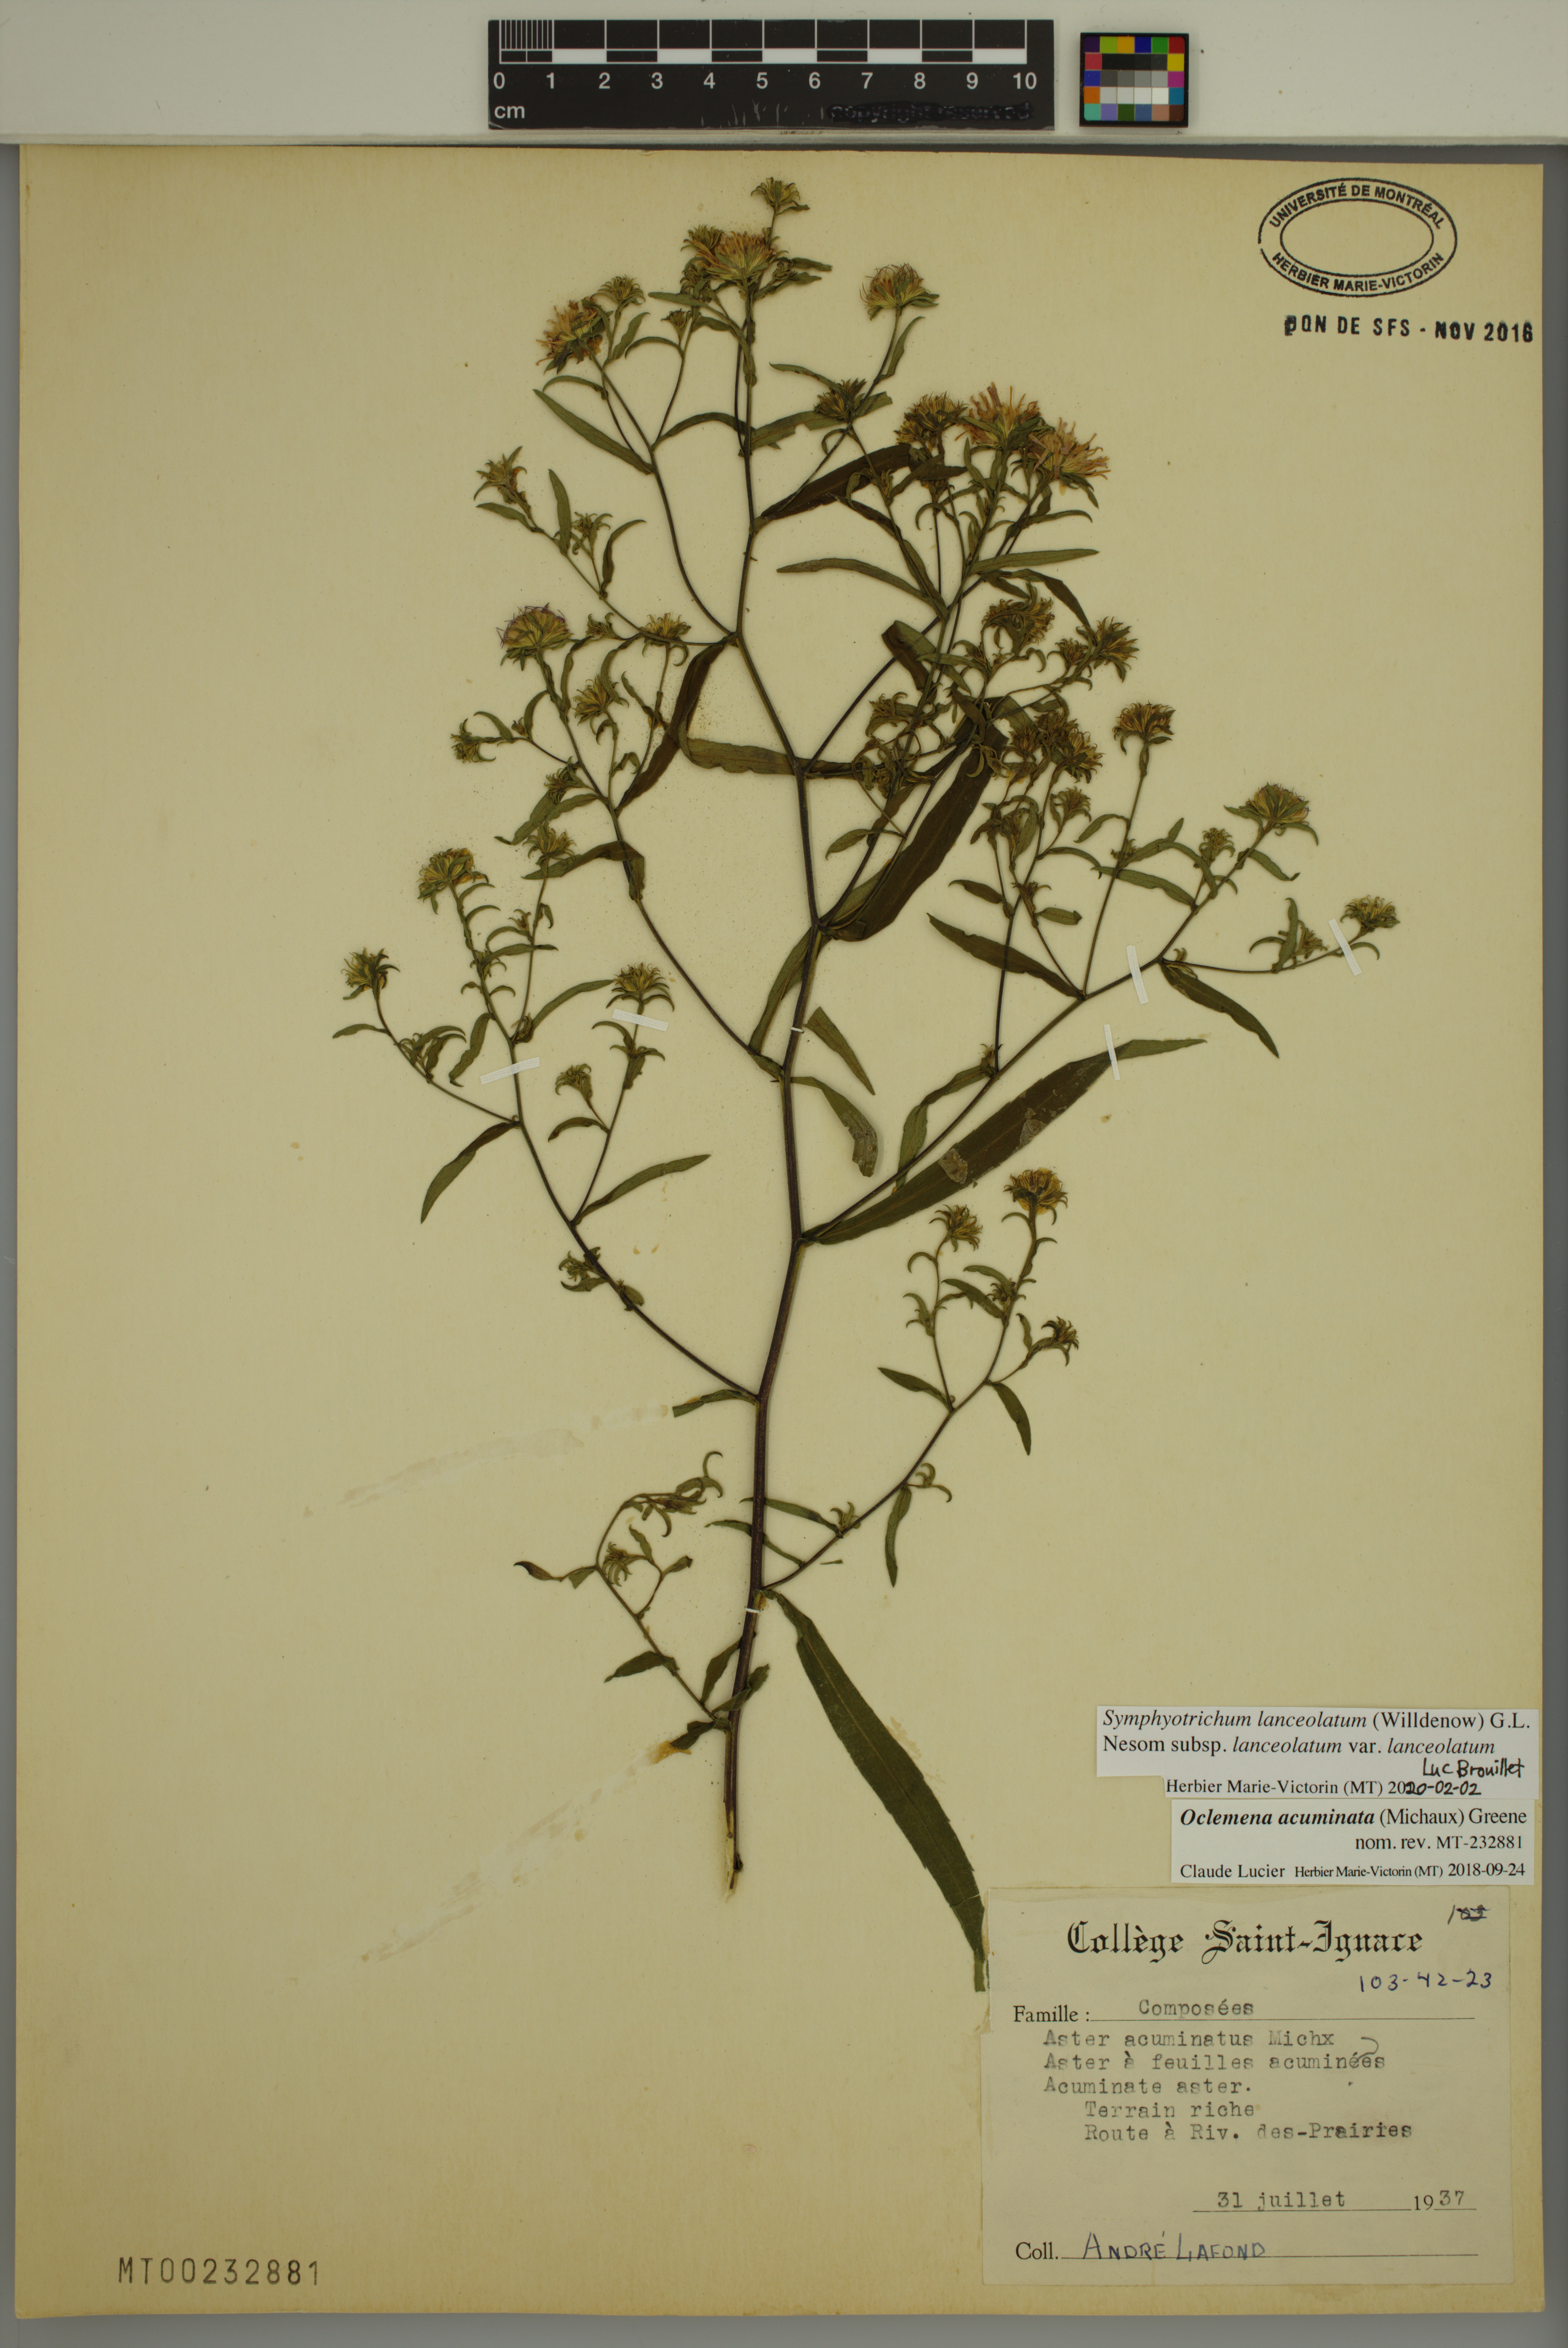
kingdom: Plantae
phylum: Tracheophyta
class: Magnoliopsida
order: Asterales
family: Asteraceae
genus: Symphyotrichum
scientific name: Symphyotrichum lanceolatum
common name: Panicled aster
